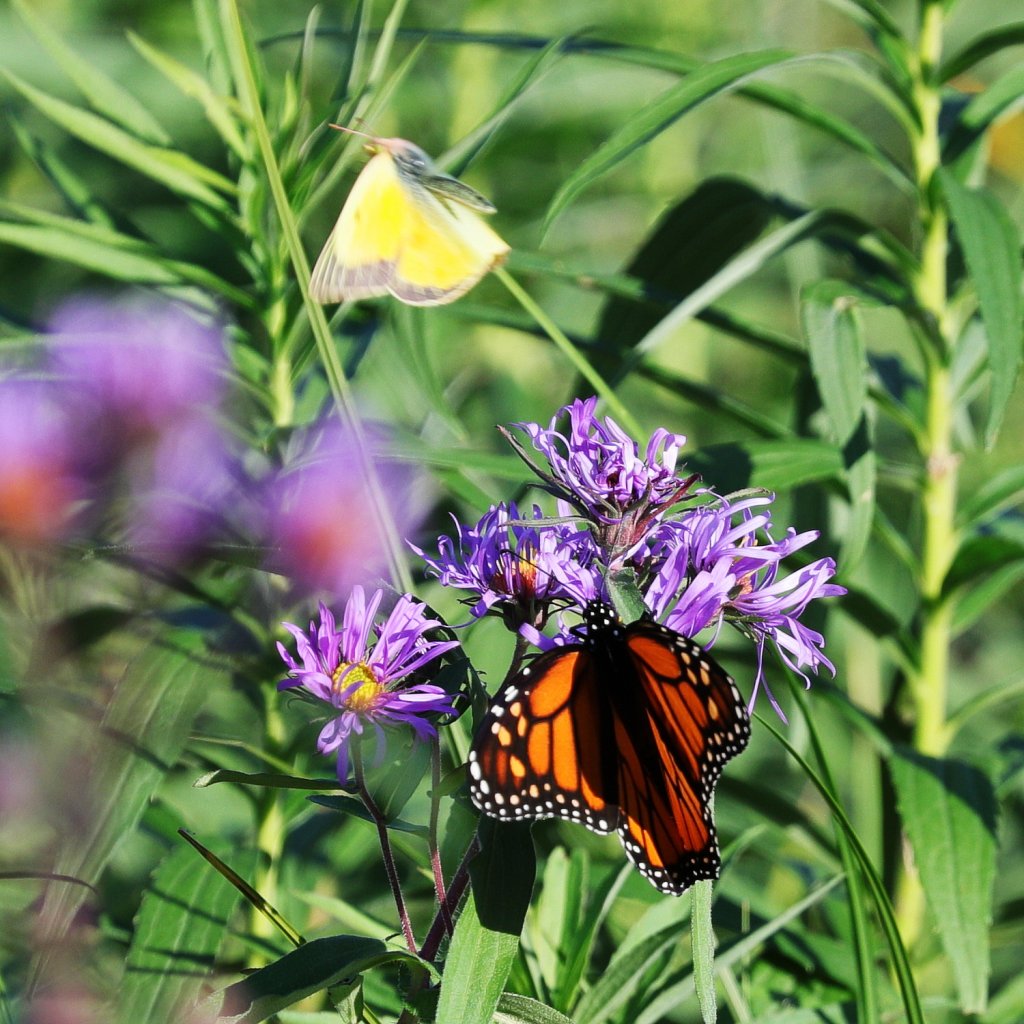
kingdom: Animalia
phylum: Arthropoda
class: Insecta
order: Lepidoptera
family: Pieridae
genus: Colias
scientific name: Colias eurytheme
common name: Orange Sulphur
